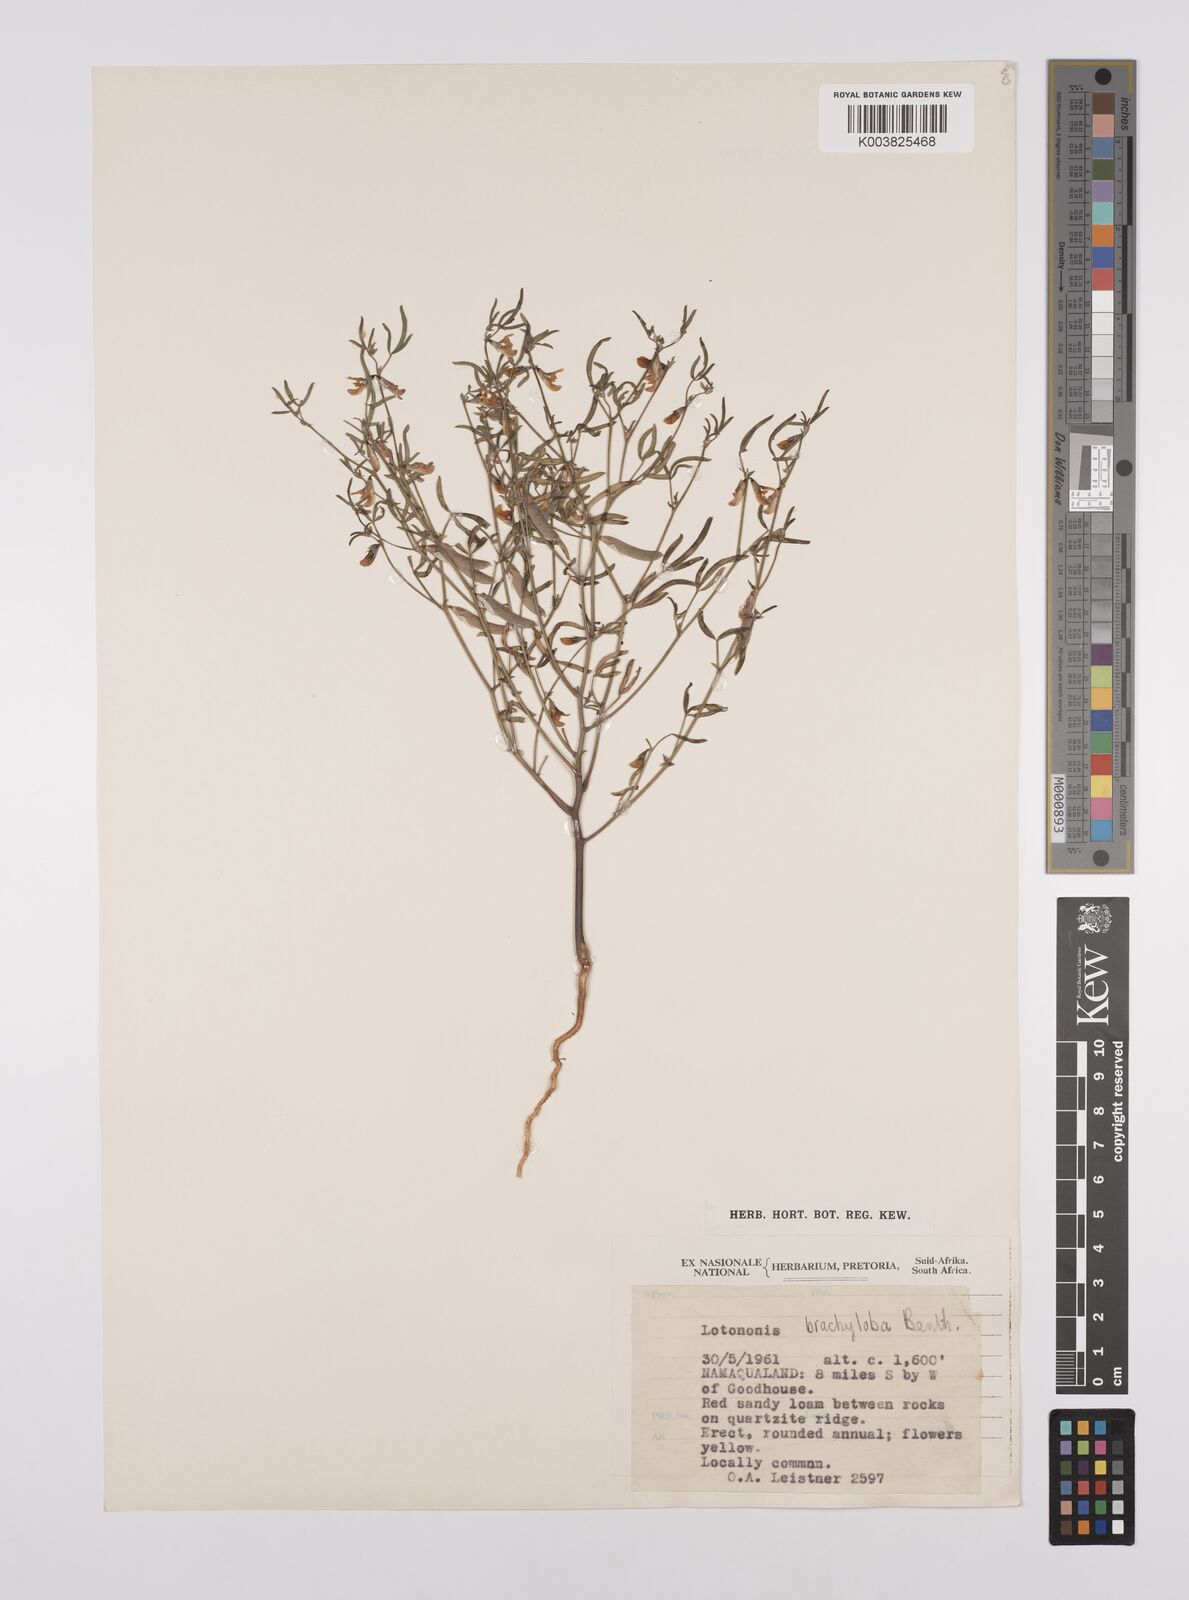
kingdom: Plantae
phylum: Tracheophyta
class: Magnoliopsida
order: Fabales
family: Fabaceae
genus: Lotononis
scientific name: Lotononis falcata
